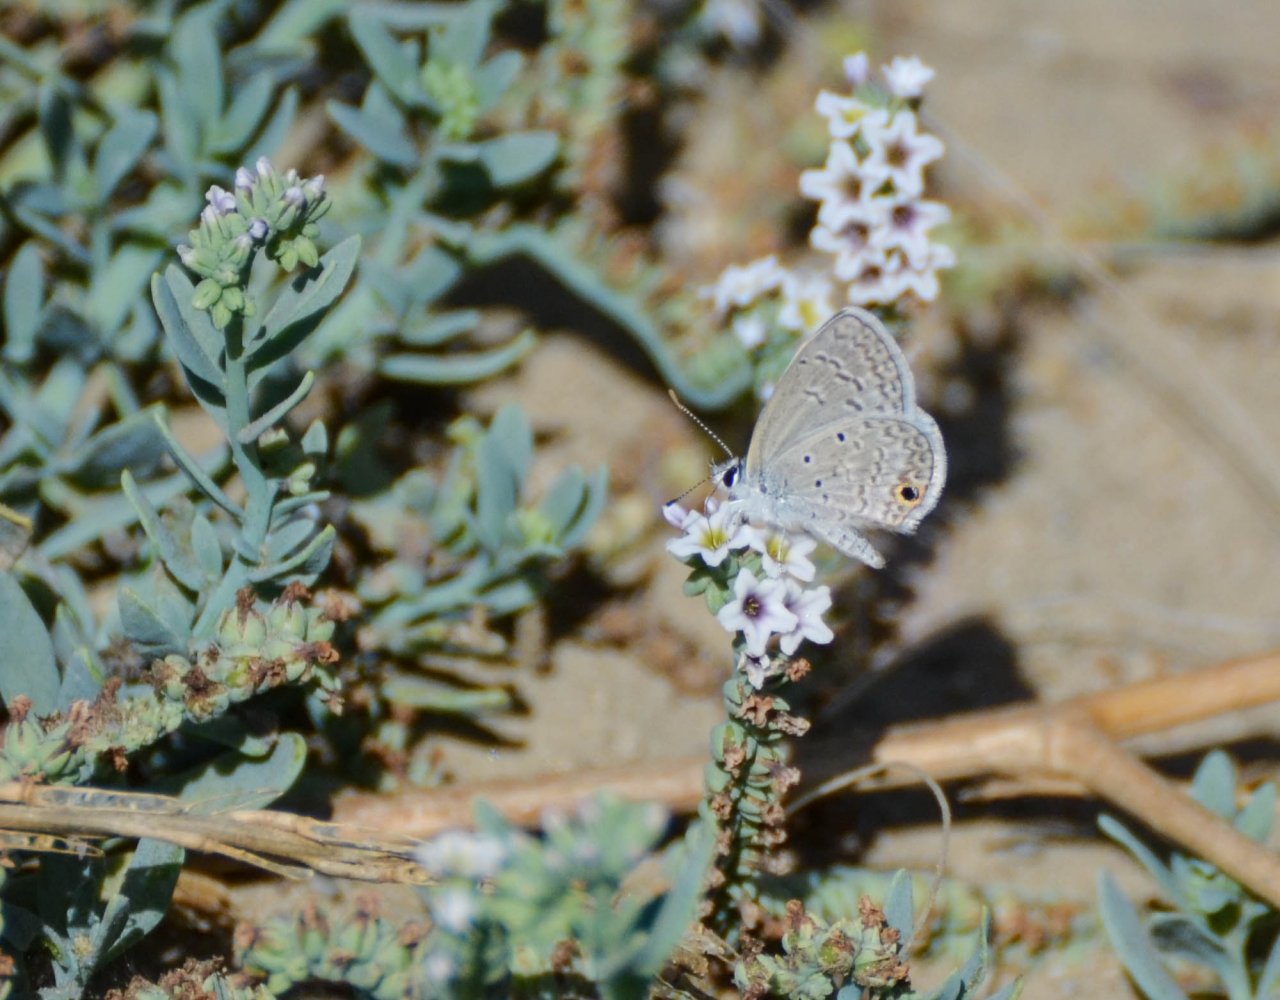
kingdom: Animalia
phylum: Arthropoda
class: Insecta
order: Lepidoptera
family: Lycaenidae
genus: Hemiargus
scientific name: Hemiargus ceraunus
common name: Ceraunus Blue
